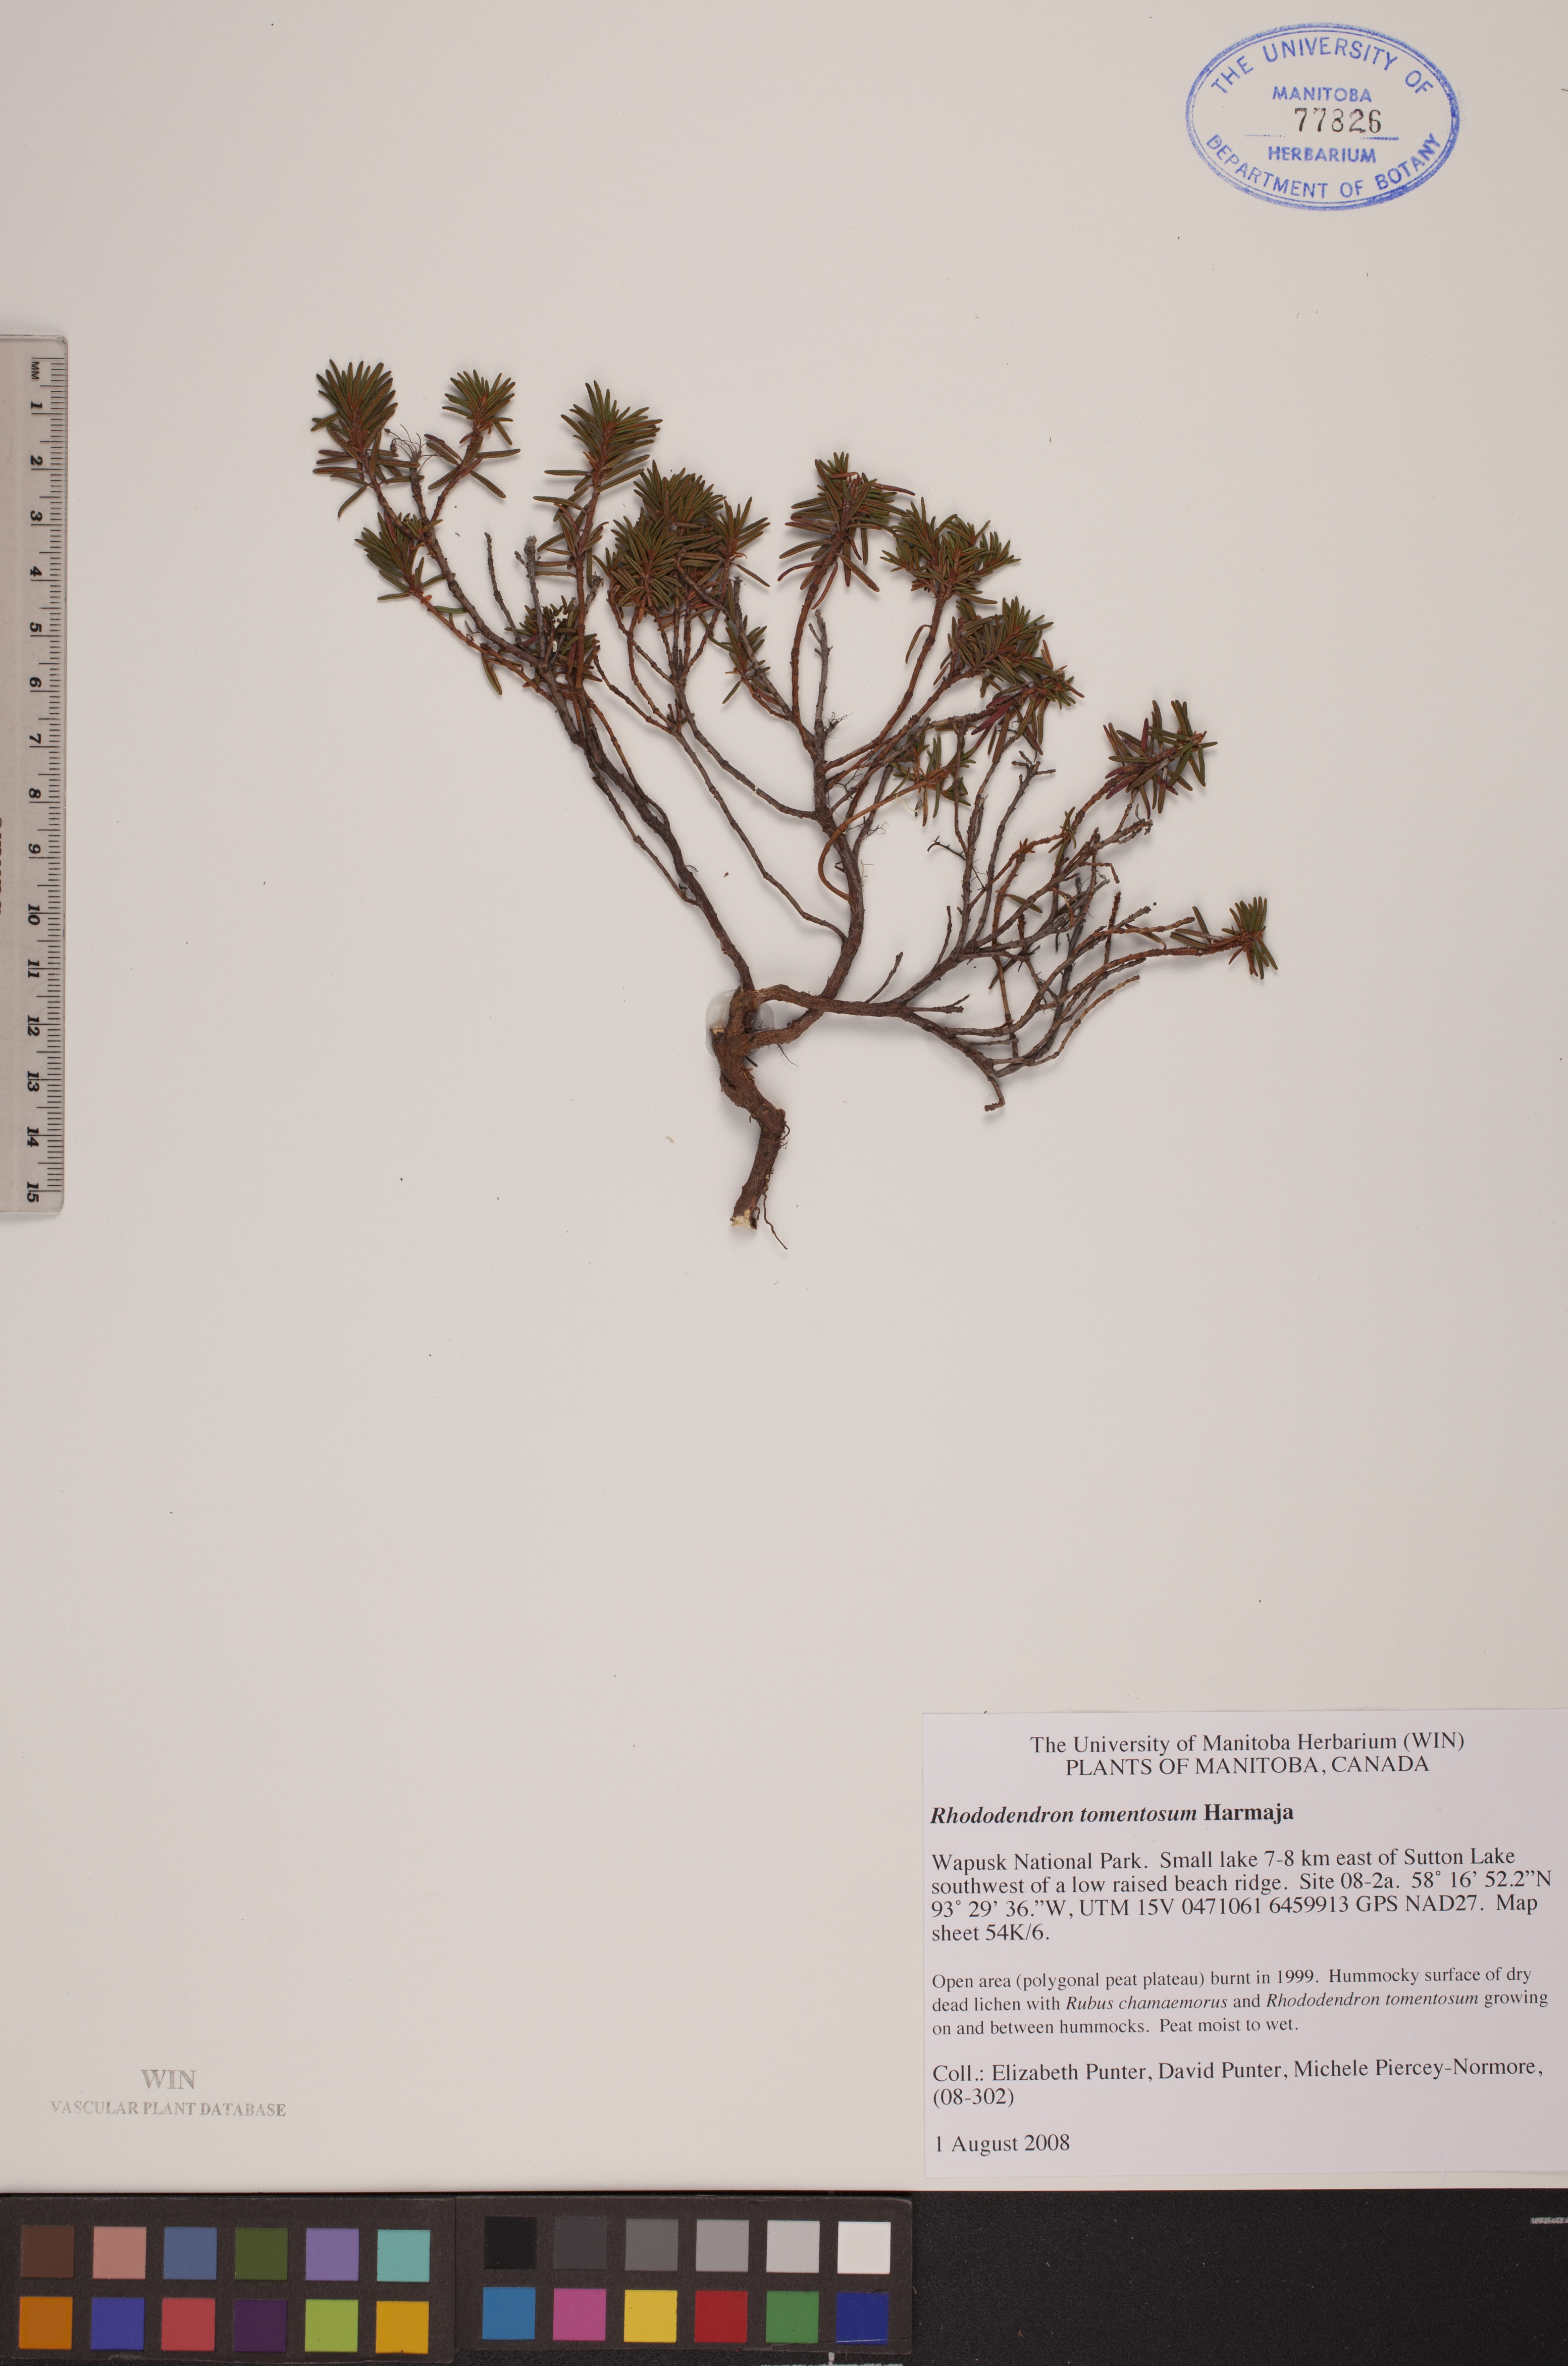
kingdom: Plantae
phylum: Tracheophyta
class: Magnoliopsida
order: Ericales
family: Ericaceae
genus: Rhododendron
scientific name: Rhododendron tomentosum
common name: Marsh labrador tea
